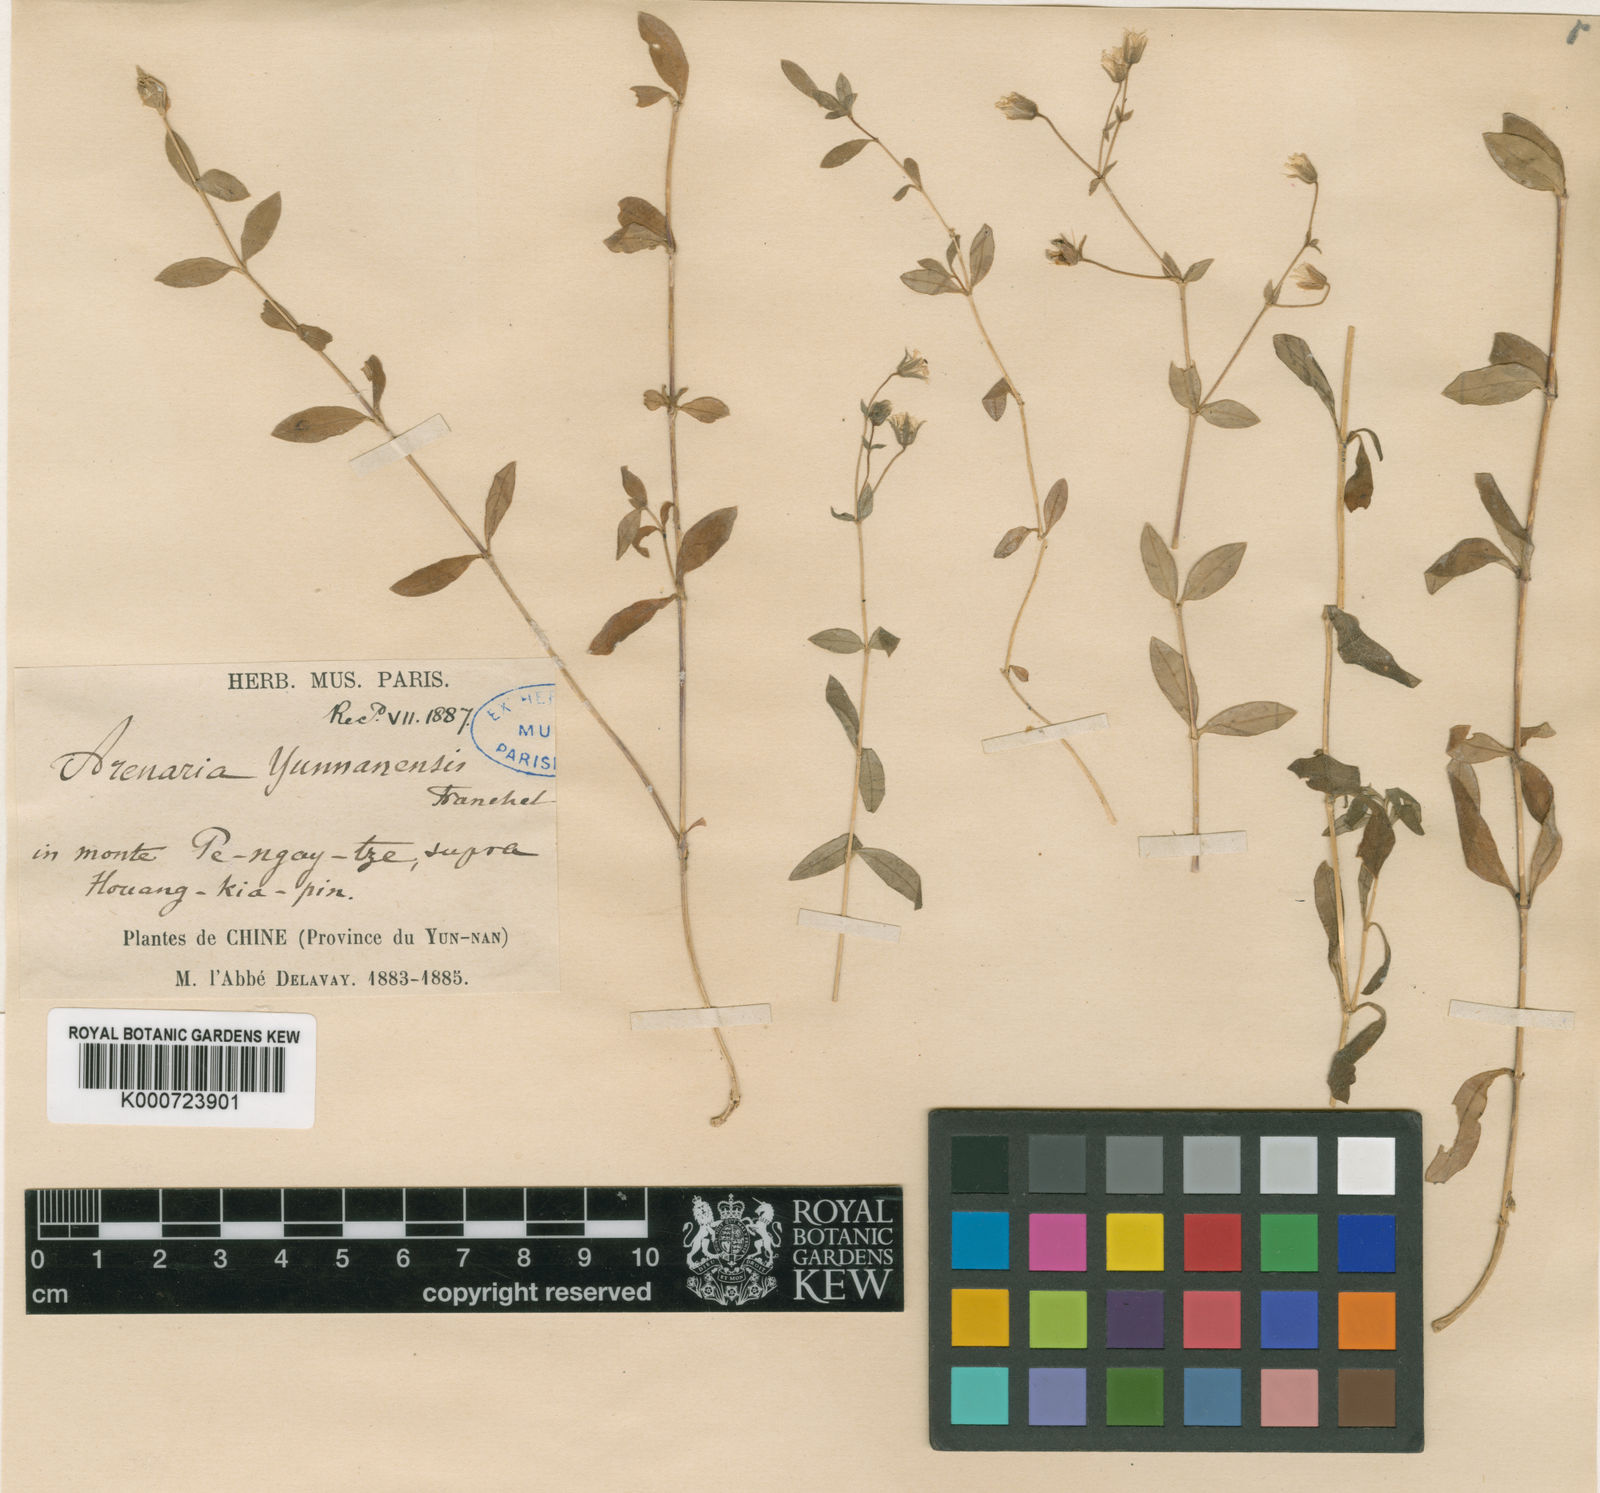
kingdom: Plantae
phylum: Tracheophyta
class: Magnoliopsida
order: Caryophyllales
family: Caryophyllaceae
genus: Odontostemma
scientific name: Odontostemma yunnanense
